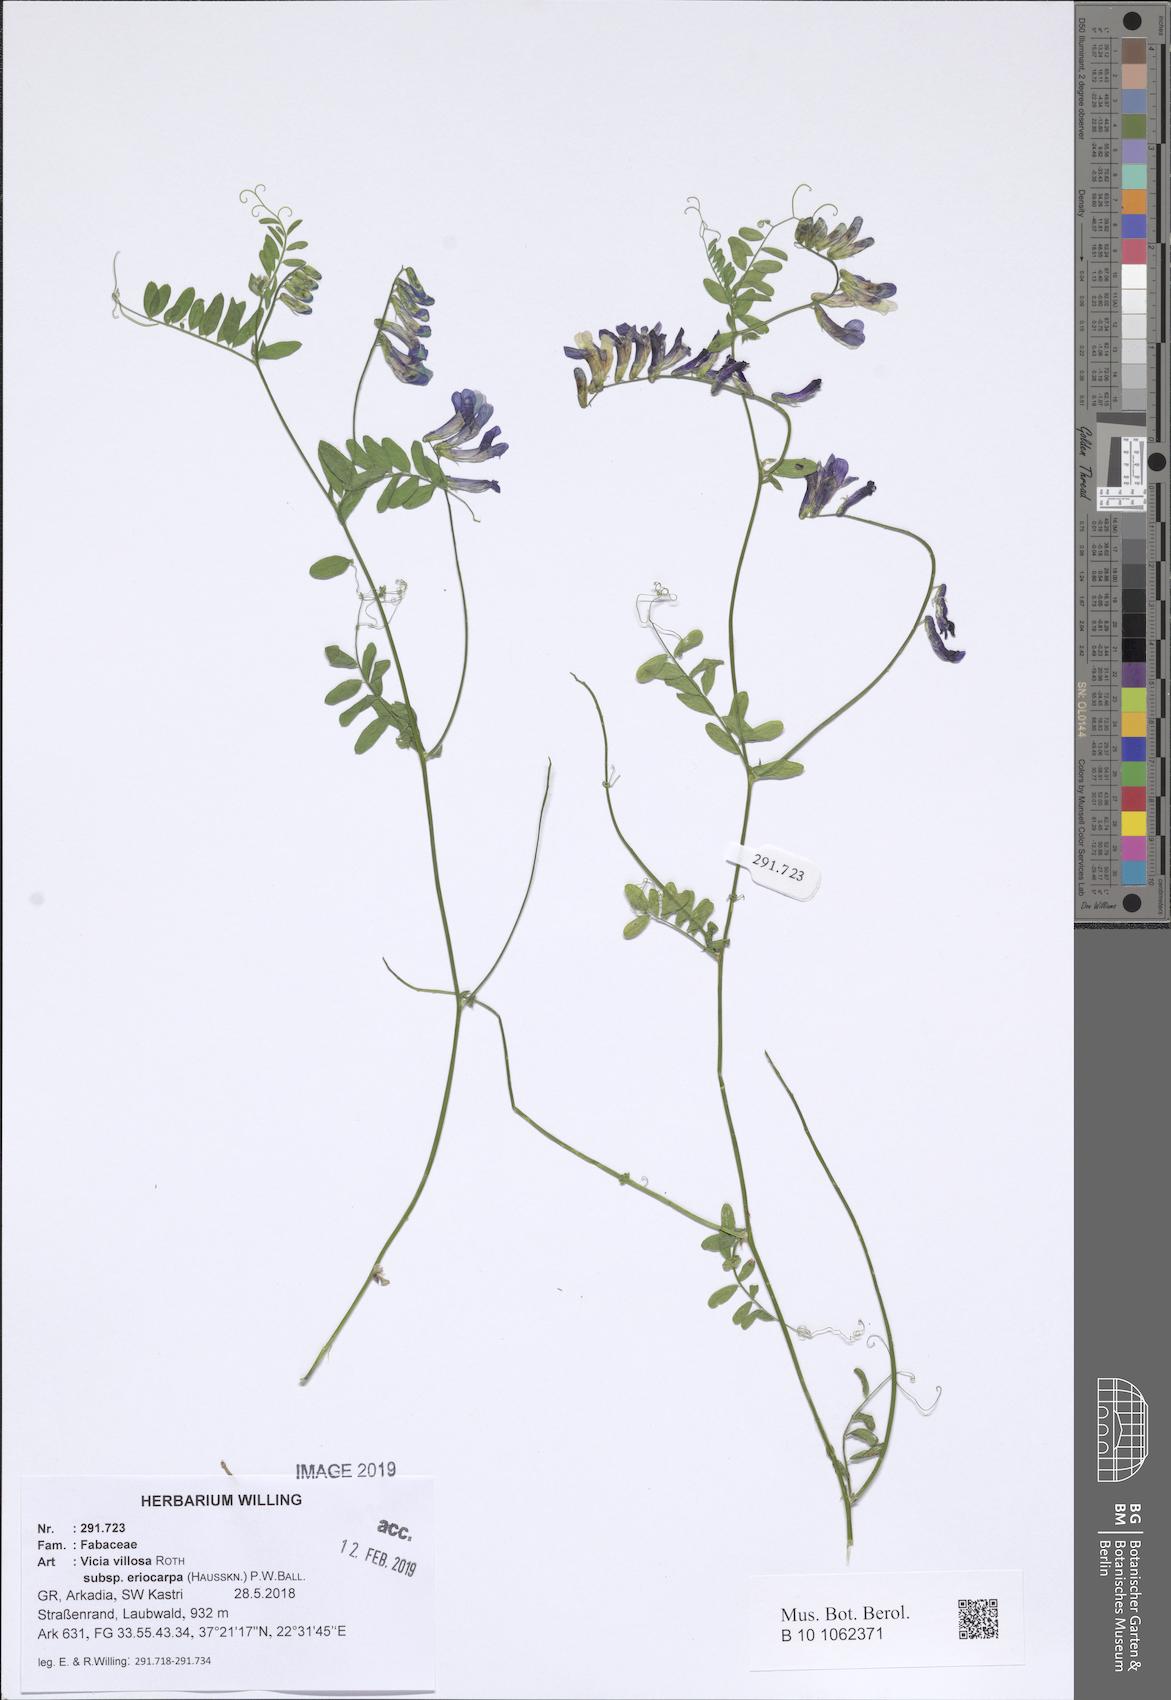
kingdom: Plantae
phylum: Tracheophyta
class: Magnoliopsida
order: Fabales
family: Fabaceae
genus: Vicia
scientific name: Vicia eriocarpa
